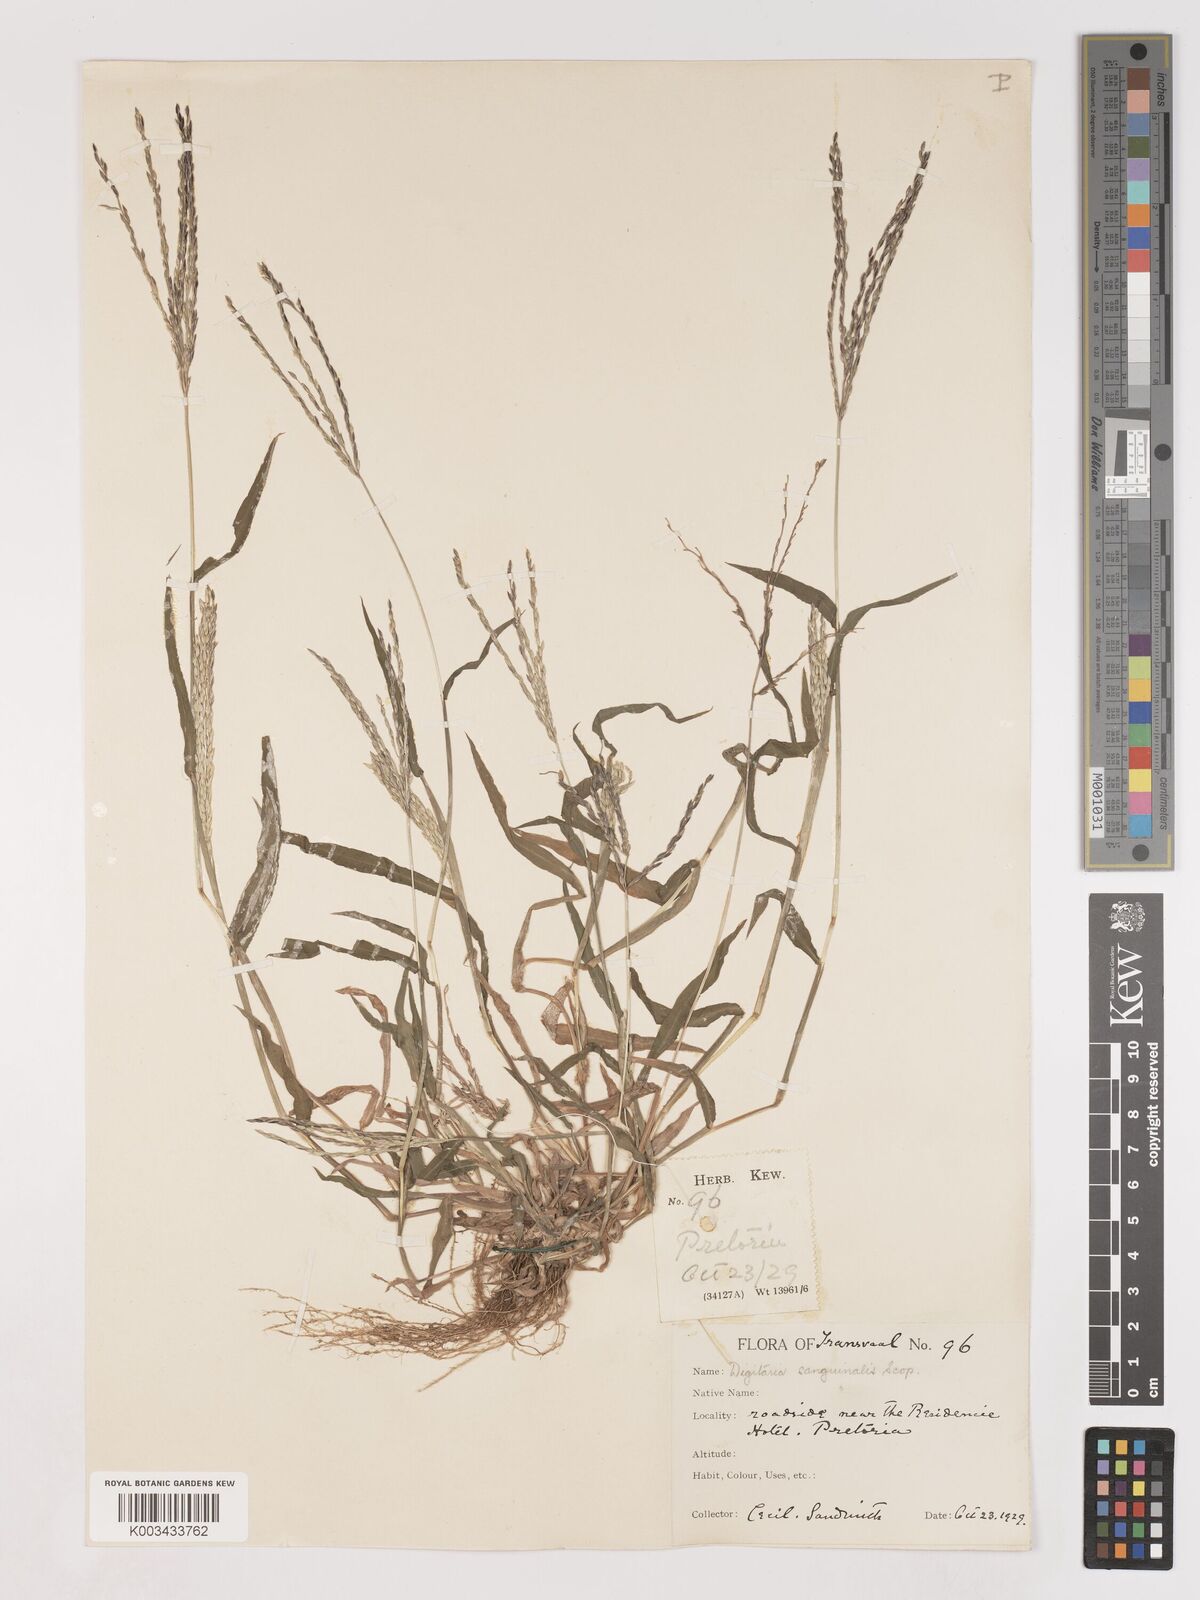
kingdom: Plantae
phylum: Tracheophyta
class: Liliopsida
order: Poales
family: Poaceae
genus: Digitaria
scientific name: Digitaria ciliaris
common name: Tropical finger-grass
